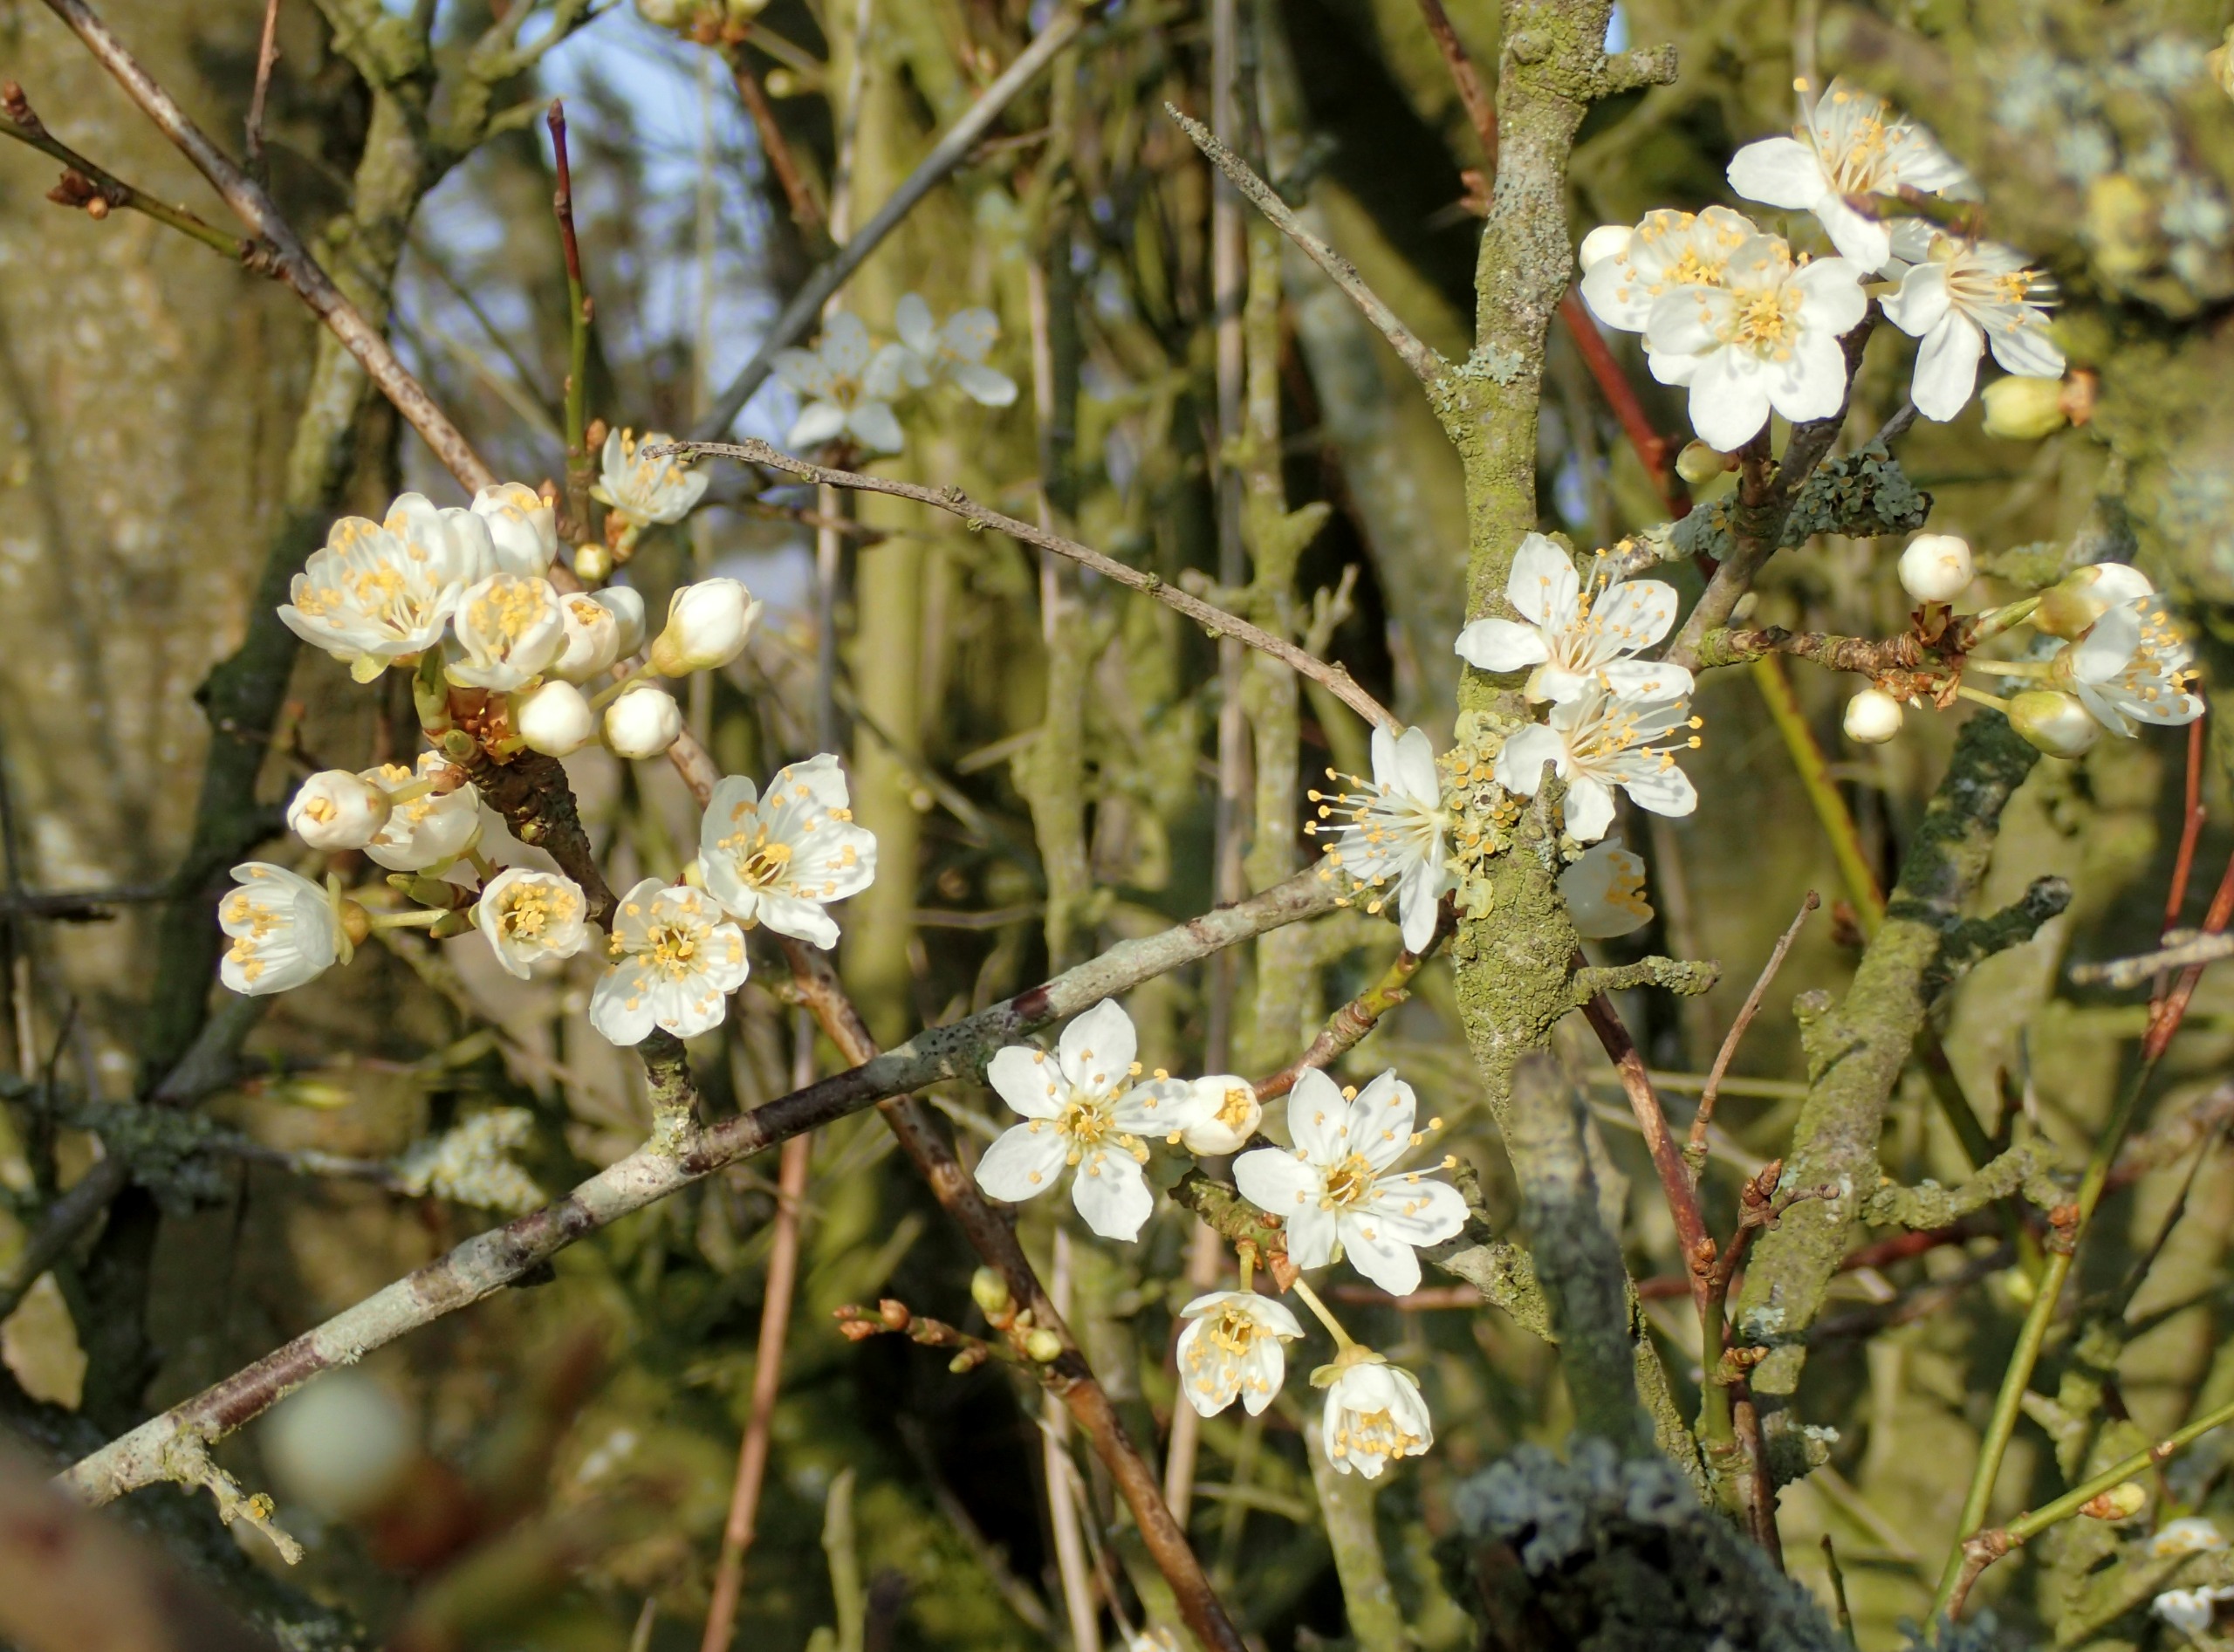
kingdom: Plantae
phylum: Tracheophyta
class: Magnoliopsida
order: Rosales
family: Rosaceae
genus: Prunus
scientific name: Prunus cerasifera
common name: Mirabel
